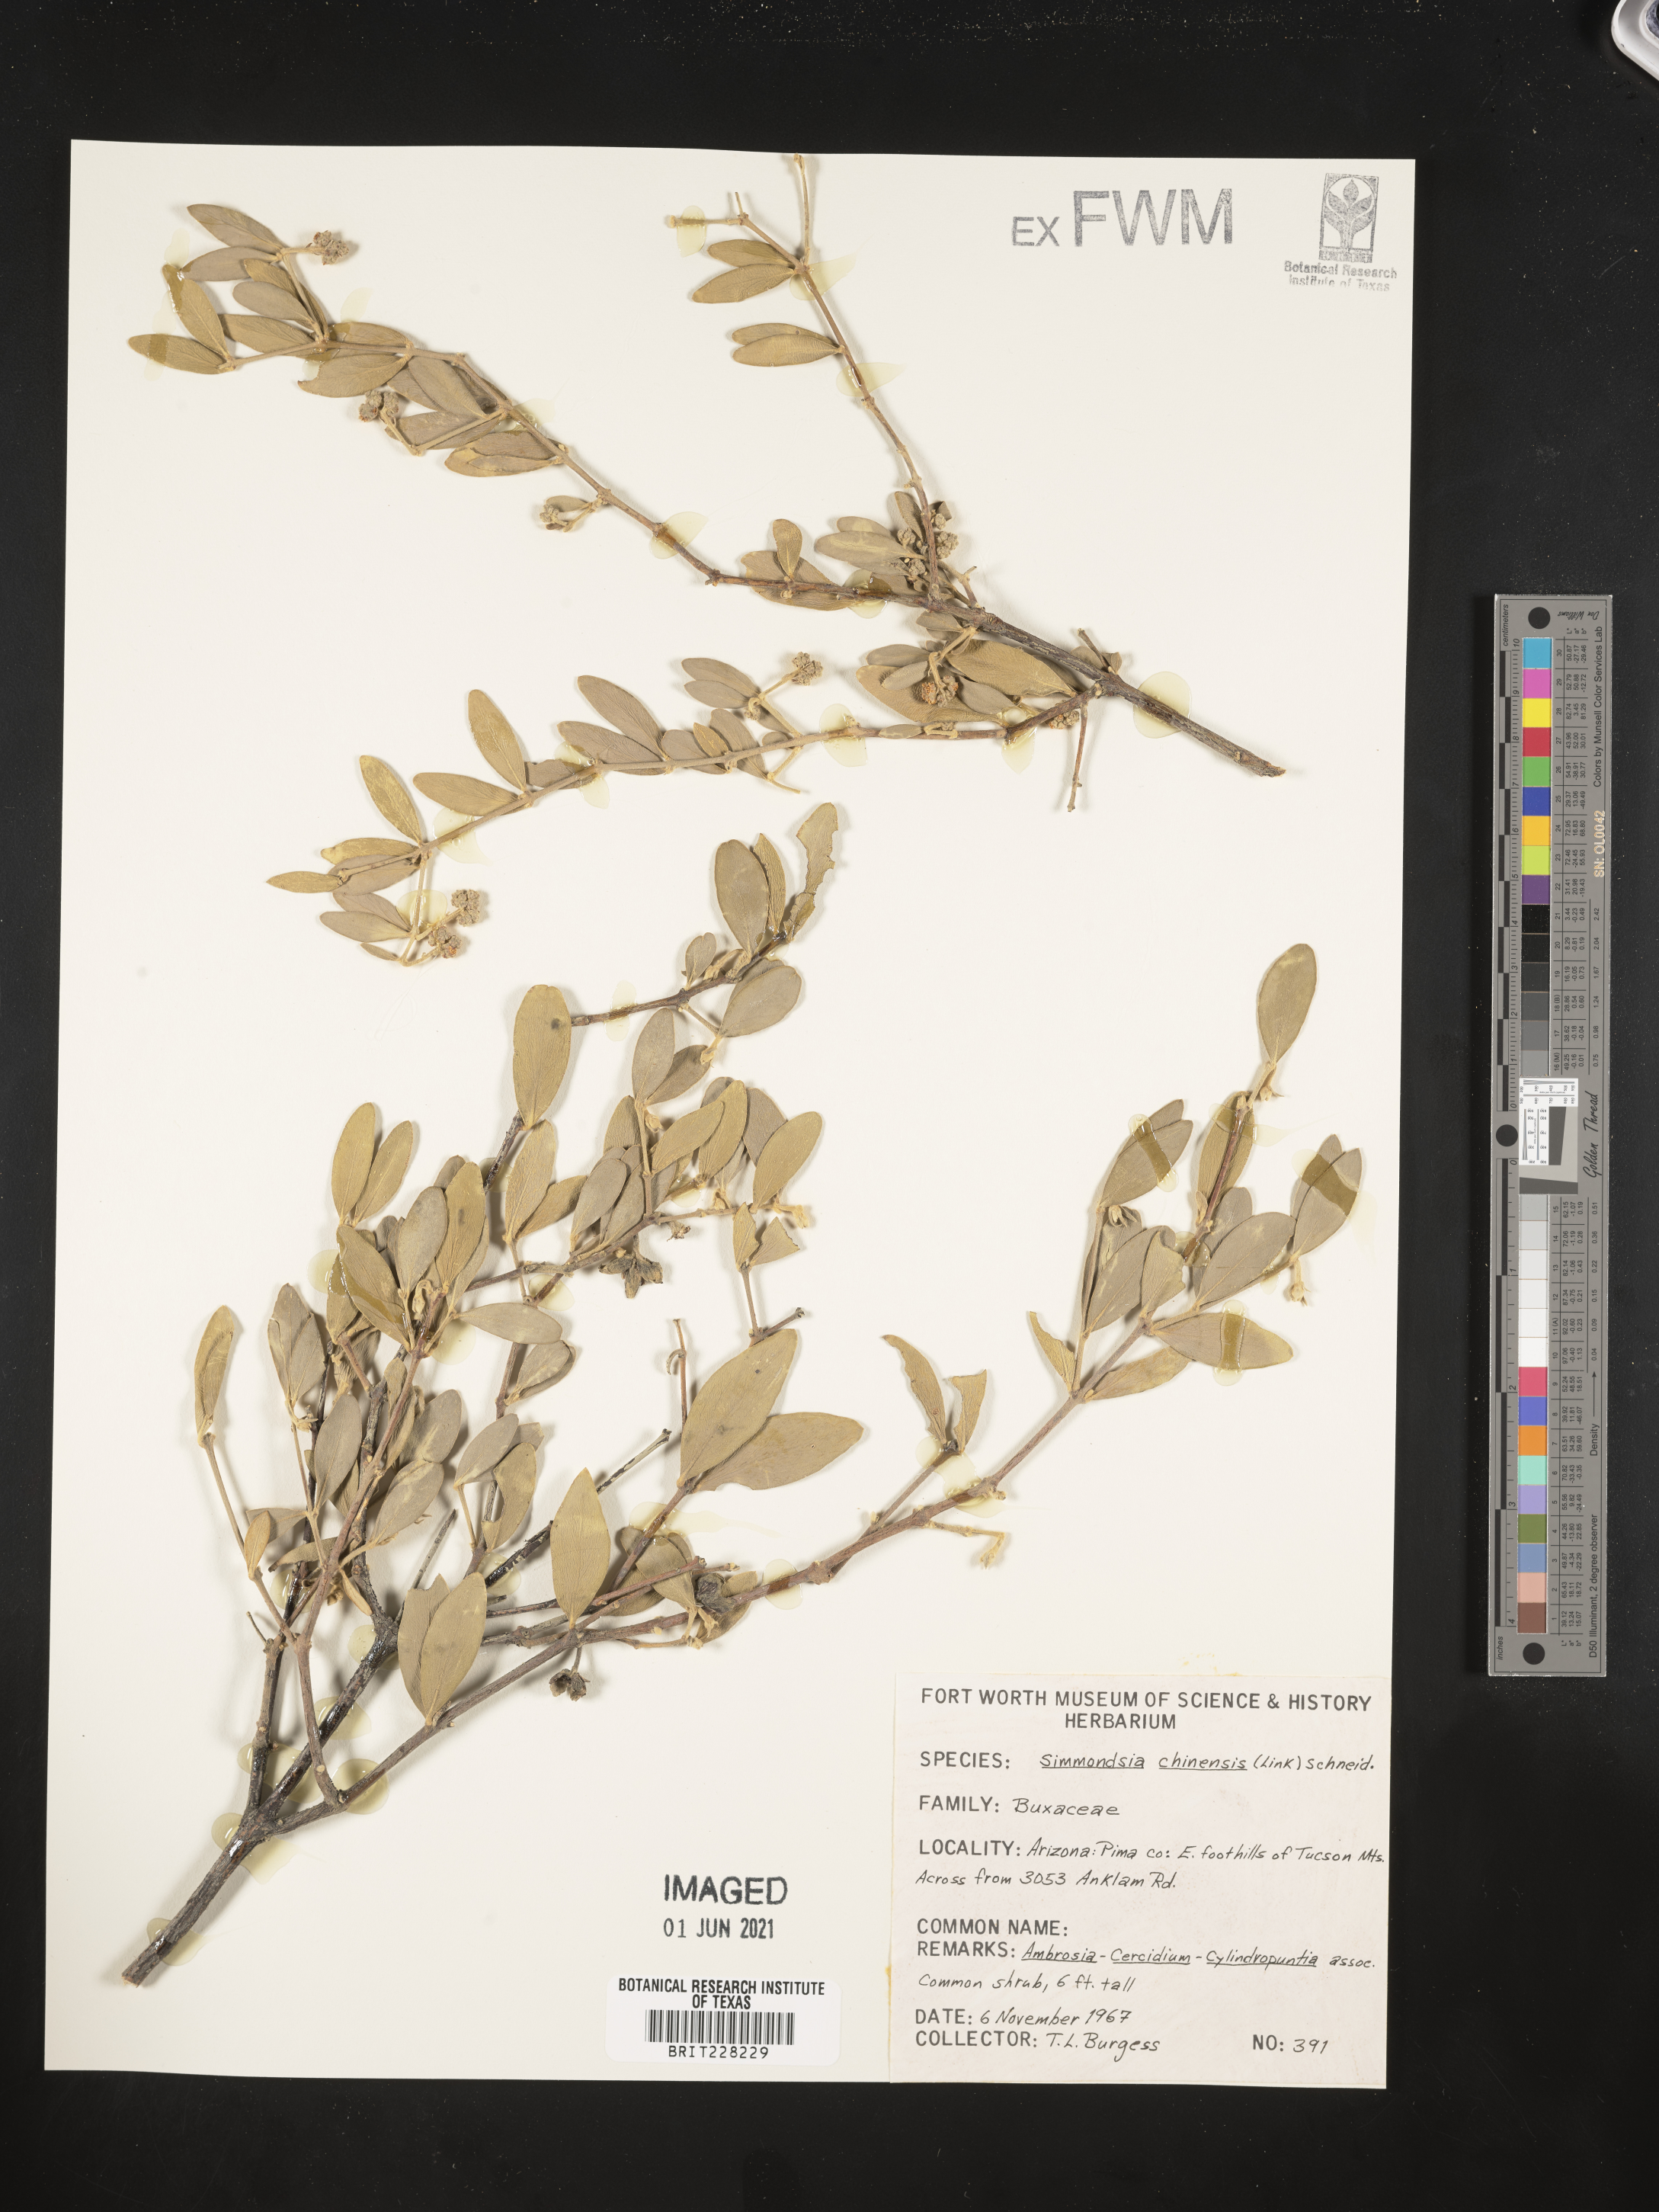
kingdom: Plantae
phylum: Tracheophyta
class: Magnoliopsida
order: Caryophyllales
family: Simmondsiaceae
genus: Simmondsia
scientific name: Simmondsia chinensis
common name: Jojoba
